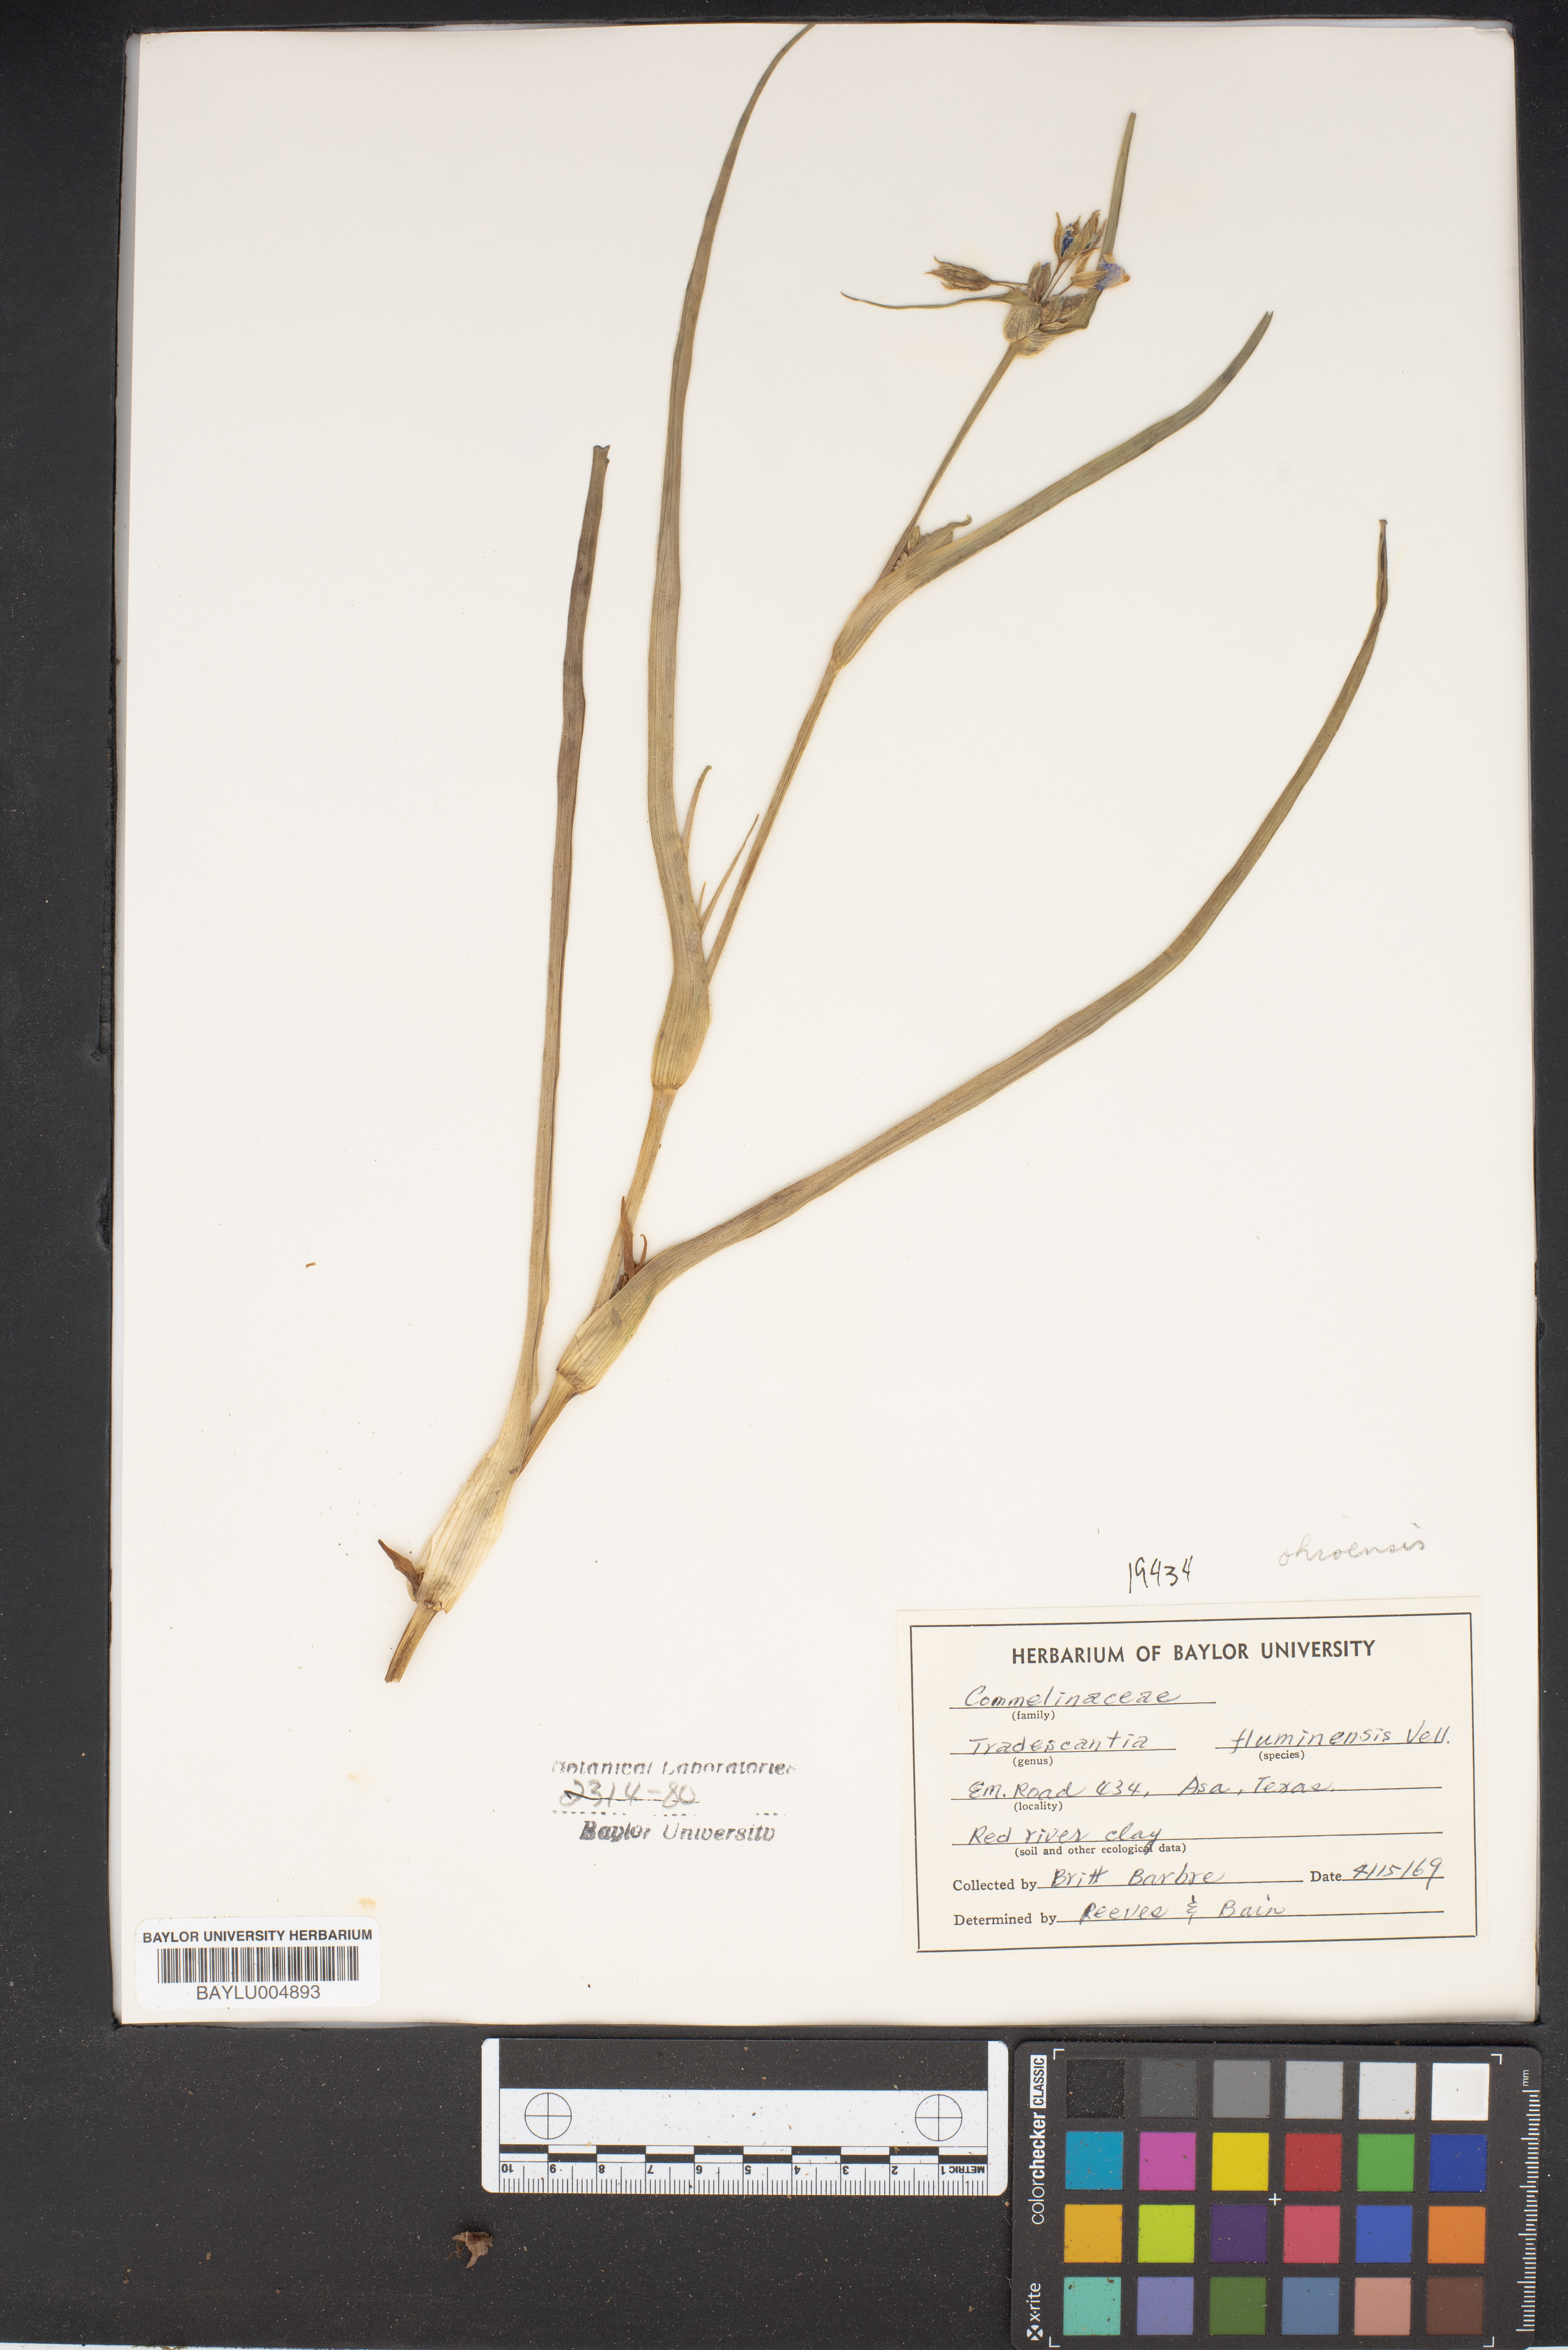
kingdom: Plantae
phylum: Tracheophyta
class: Liliopsida
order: Commelinales
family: Commelinaceae
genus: Tradescantia
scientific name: Tradescantia fluminensis
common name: Wandering-jew
